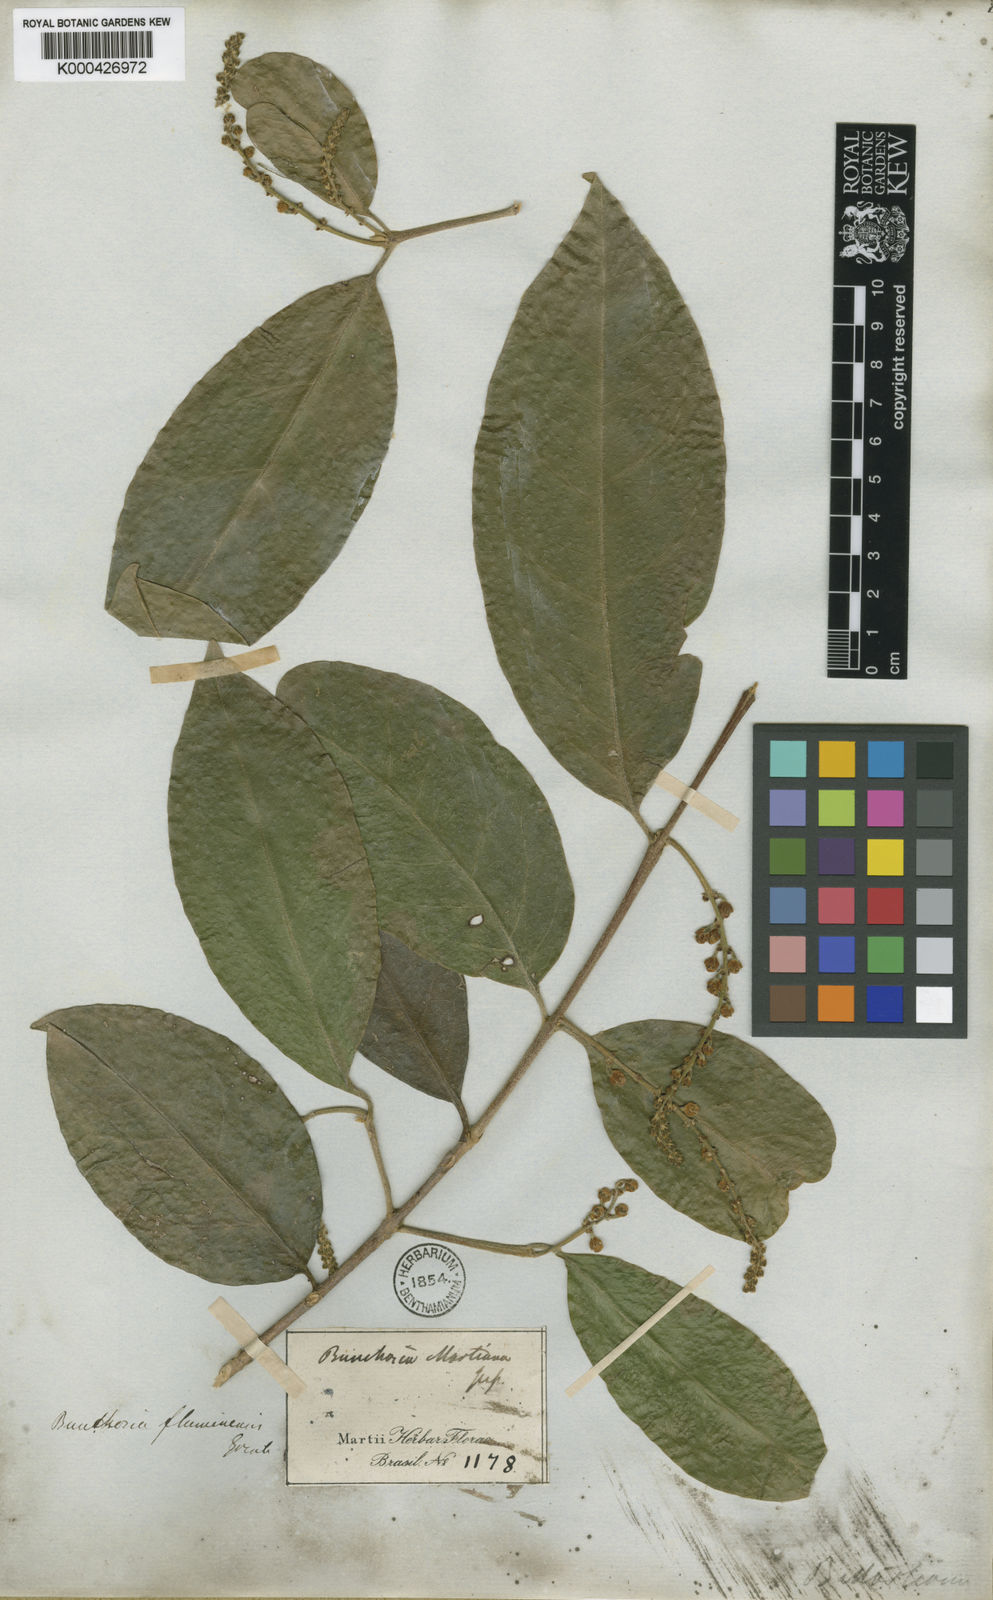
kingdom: Plantae
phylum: Tracheophyta
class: Magnoliopsida
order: Malpighiales
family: Malpighiaceae
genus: Bunchosia
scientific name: Bunchosia fluminensis
